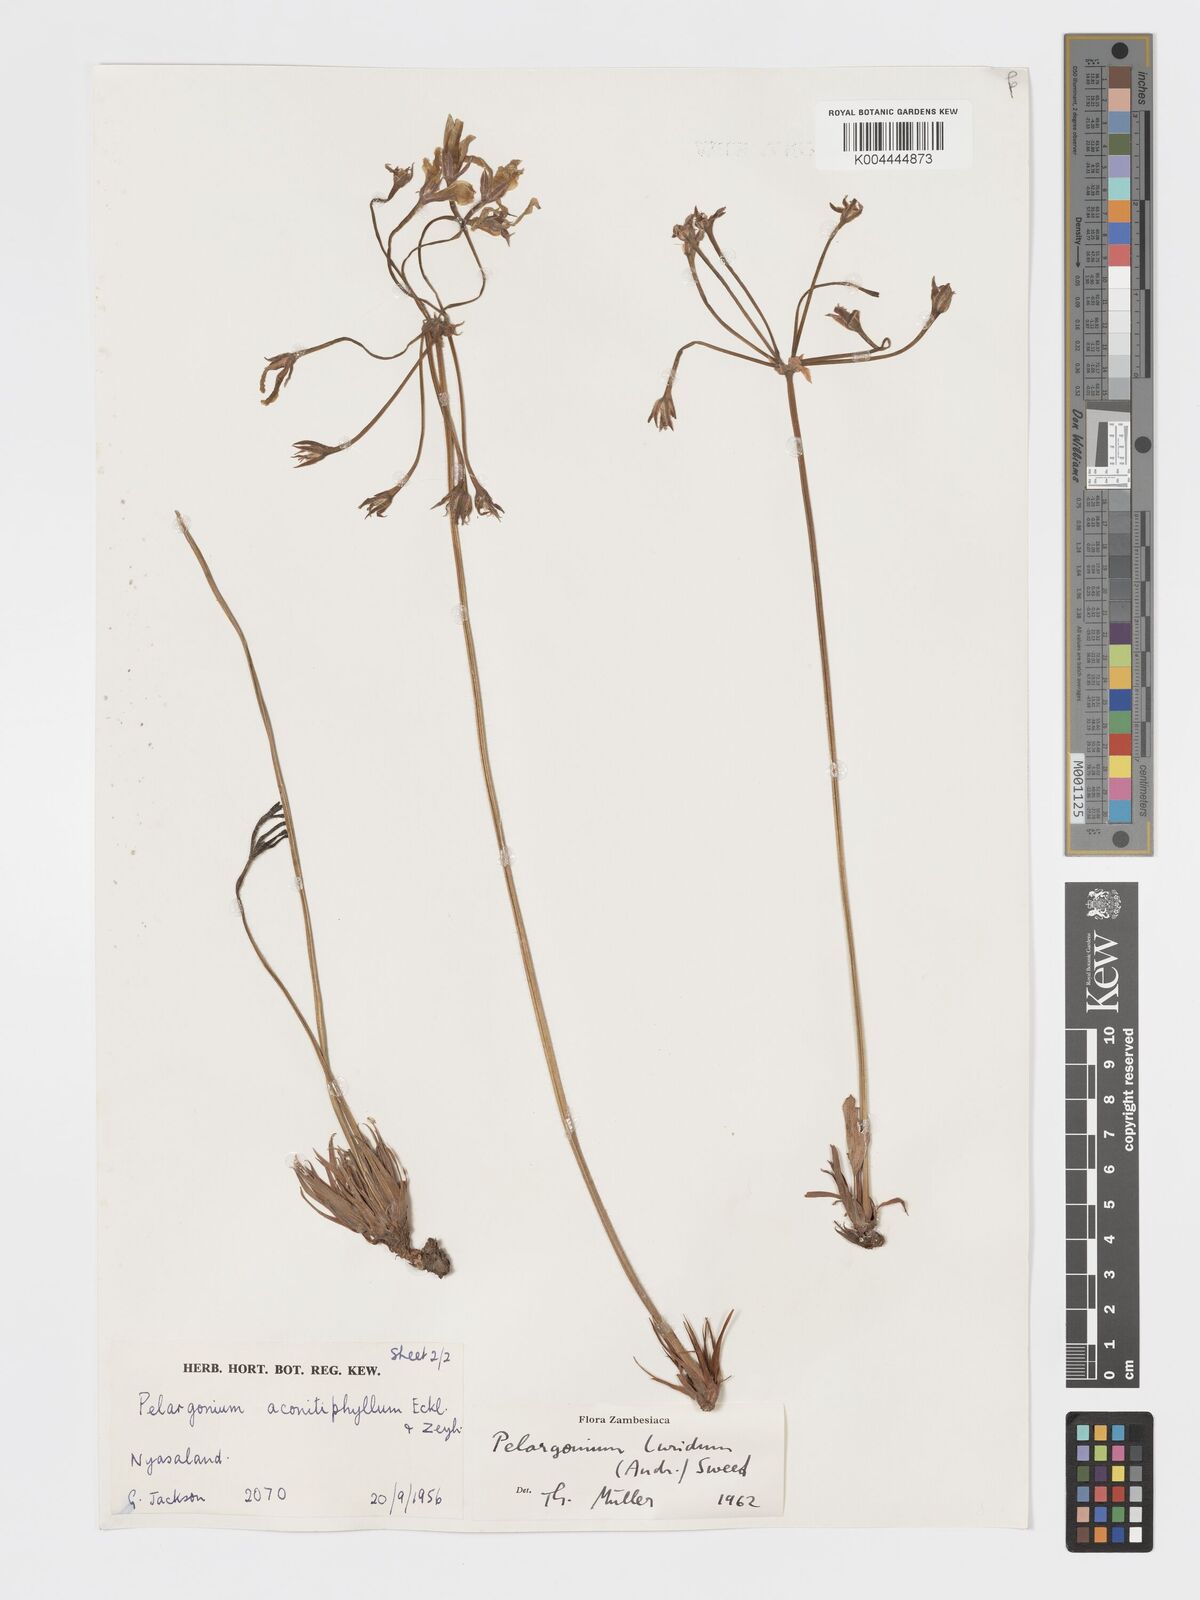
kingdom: Plantae
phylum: Tracheophyta
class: Magnoliopsida
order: Geraniales
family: Geraniaceae
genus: Pelargonium
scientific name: Pelargonium luridum
